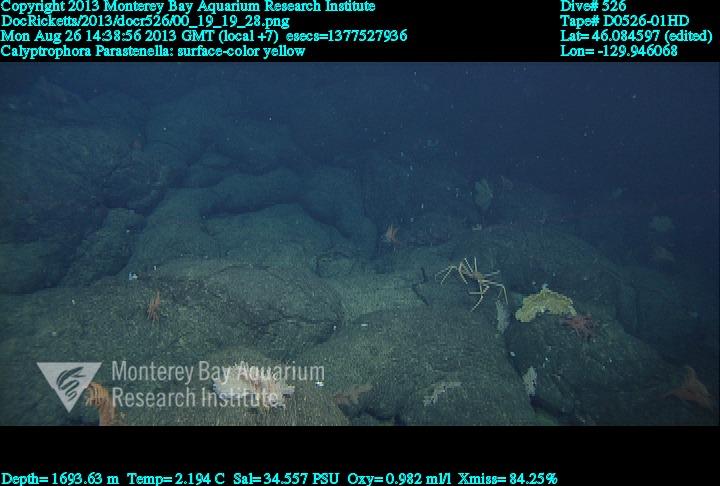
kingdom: Animalia
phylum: Cnidaria
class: Anthozoa
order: Scleralcyonacea
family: Primnoidae
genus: Parastenella
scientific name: Parastenella
